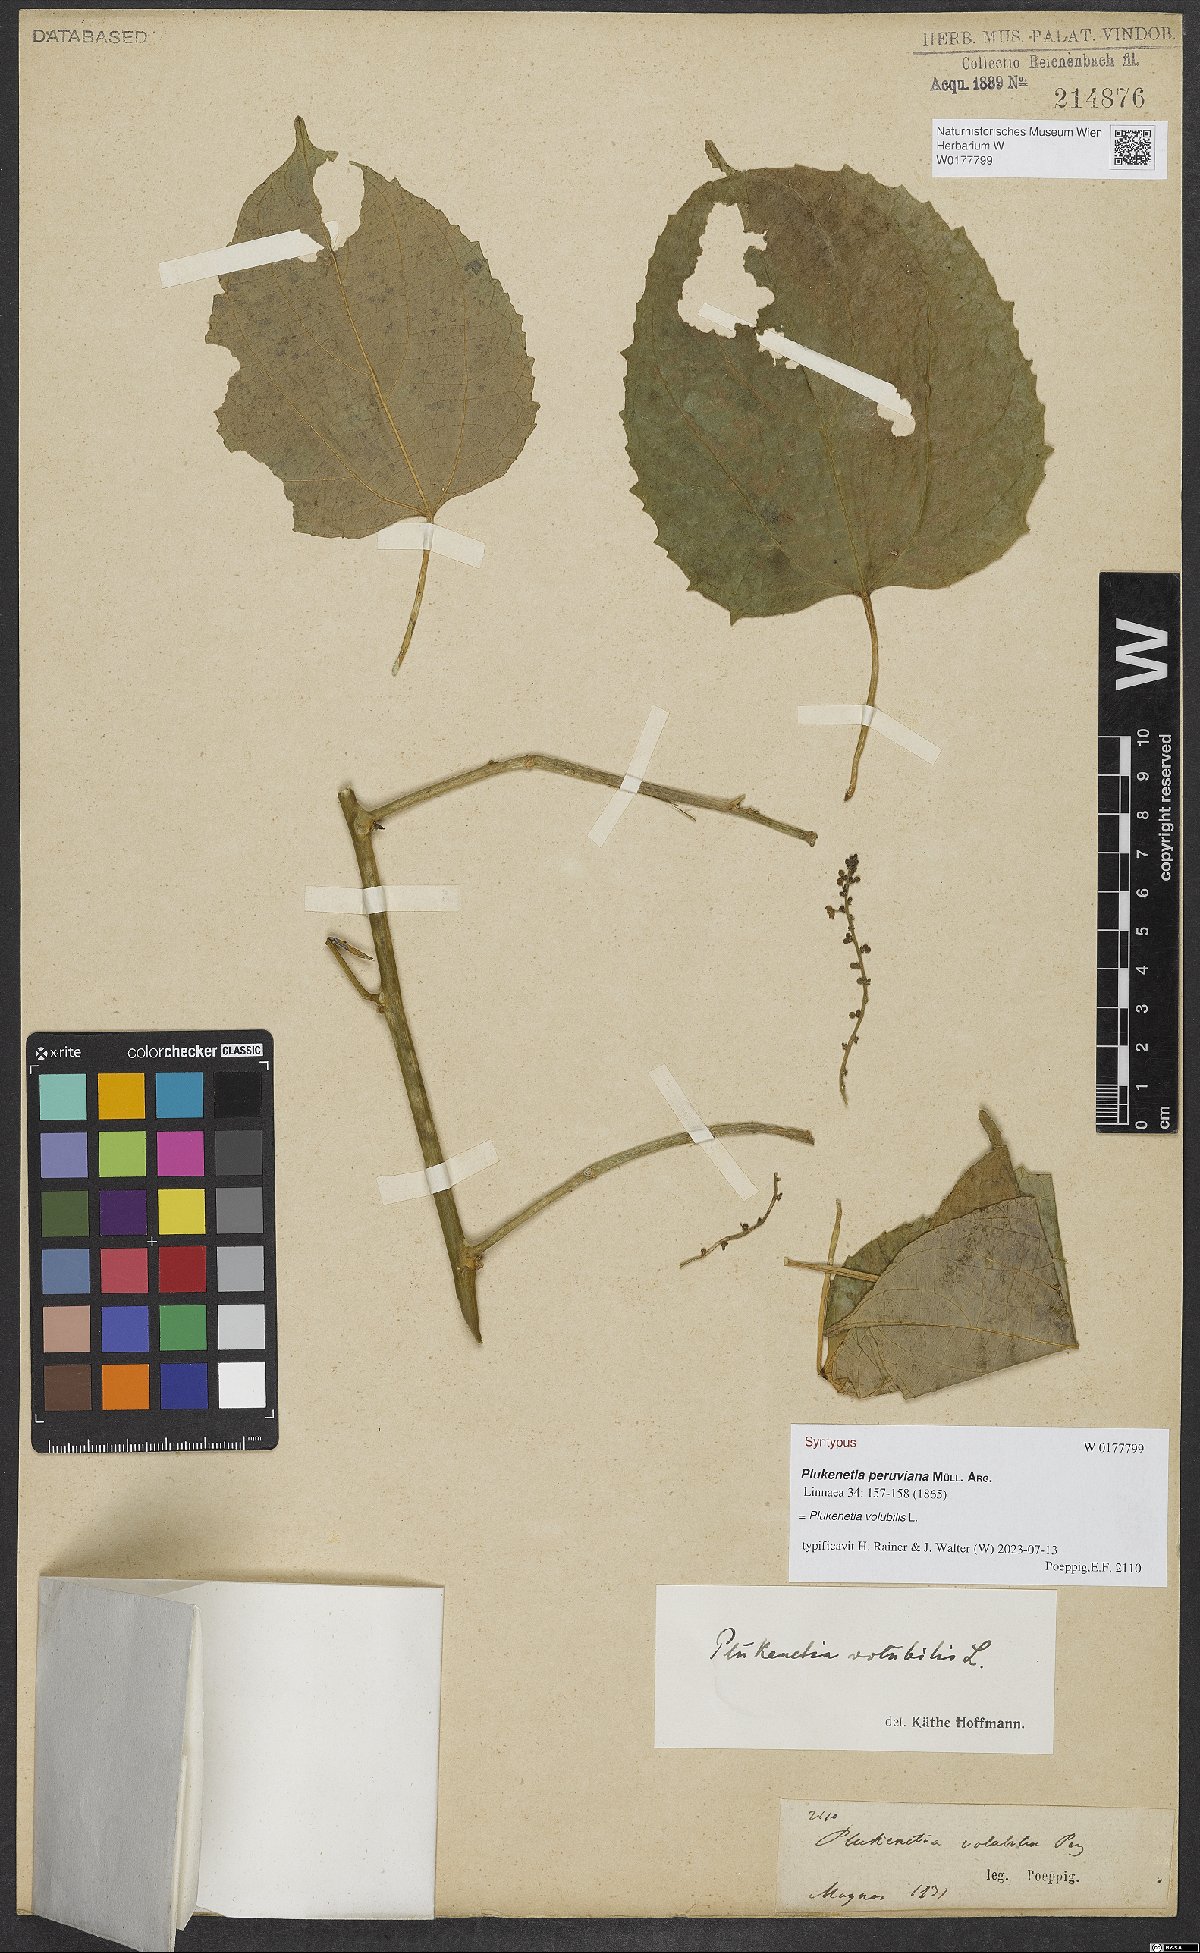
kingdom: Plantae
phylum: Tracheophyta
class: Magnoliopsida
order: Malpighiales
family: Euphorbiaceae
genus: Plukenetia
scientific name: Plukenetia volubilis
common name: Inca-peanut
